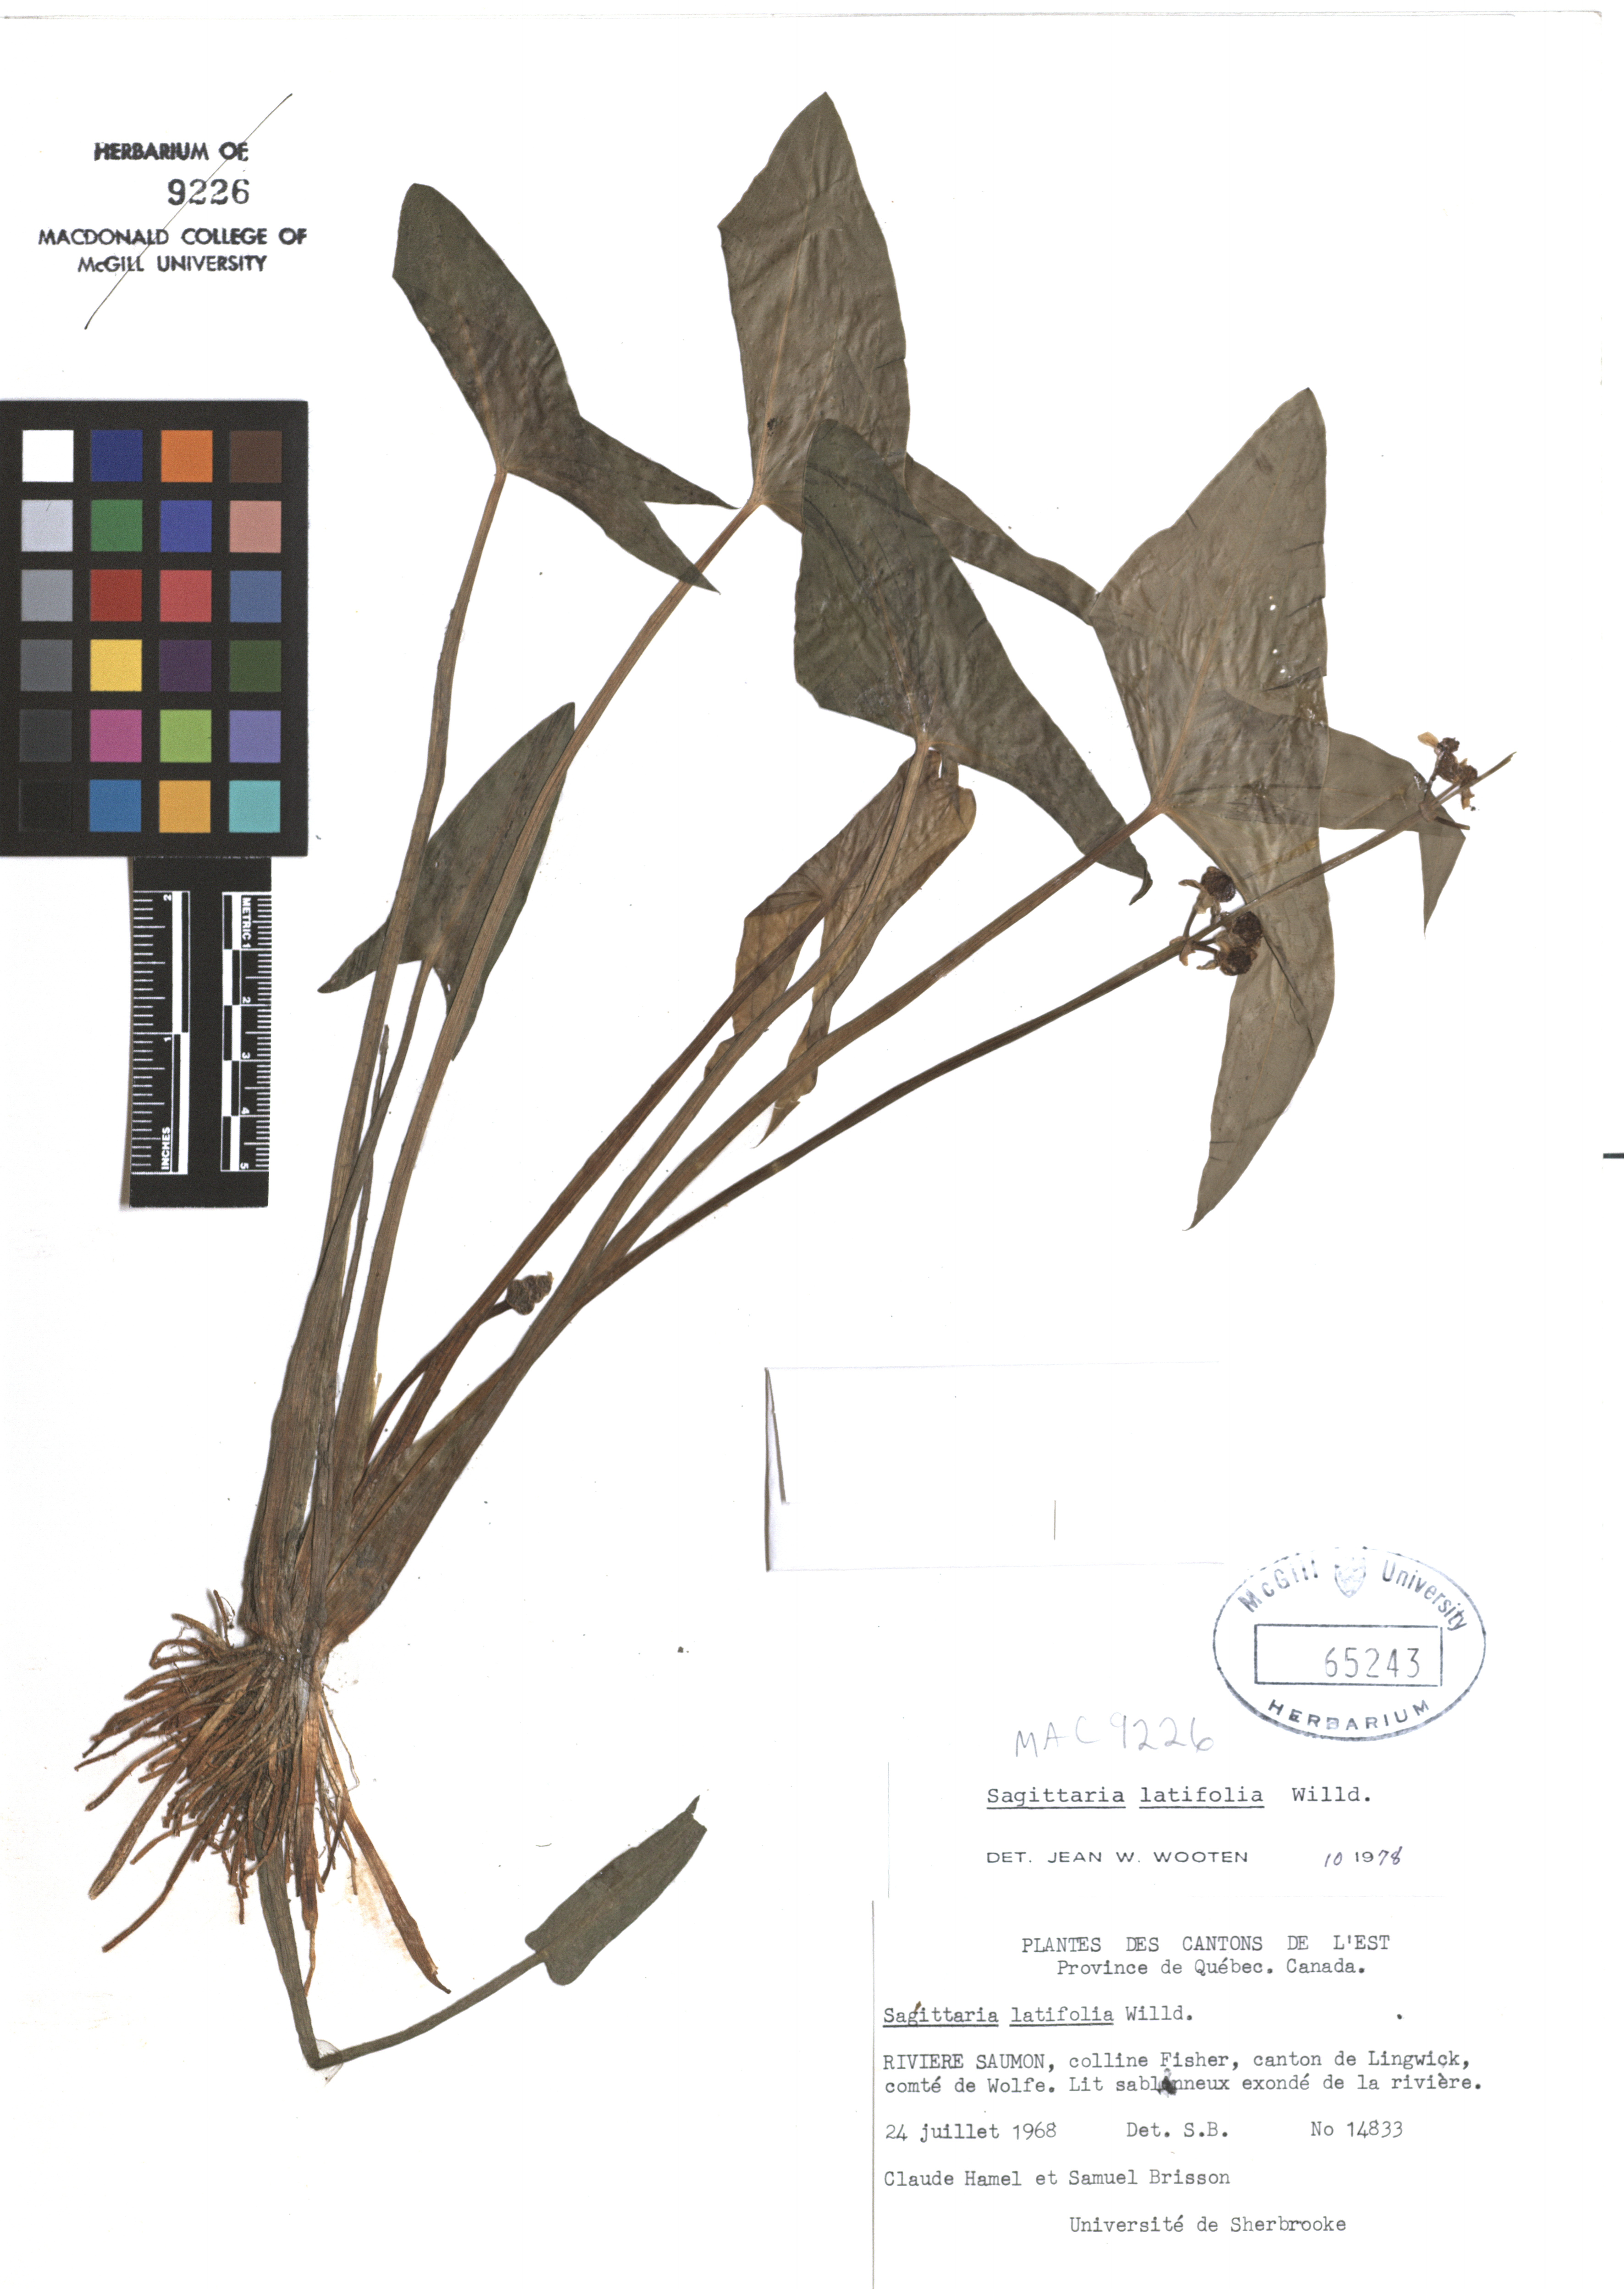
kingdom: Plantae
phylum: Tracheophyta
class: Liliopsida
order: Alismatales
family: Alismataceae
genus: Sagittaria
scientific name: Sagittaria latifolia
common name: Duck-potato
